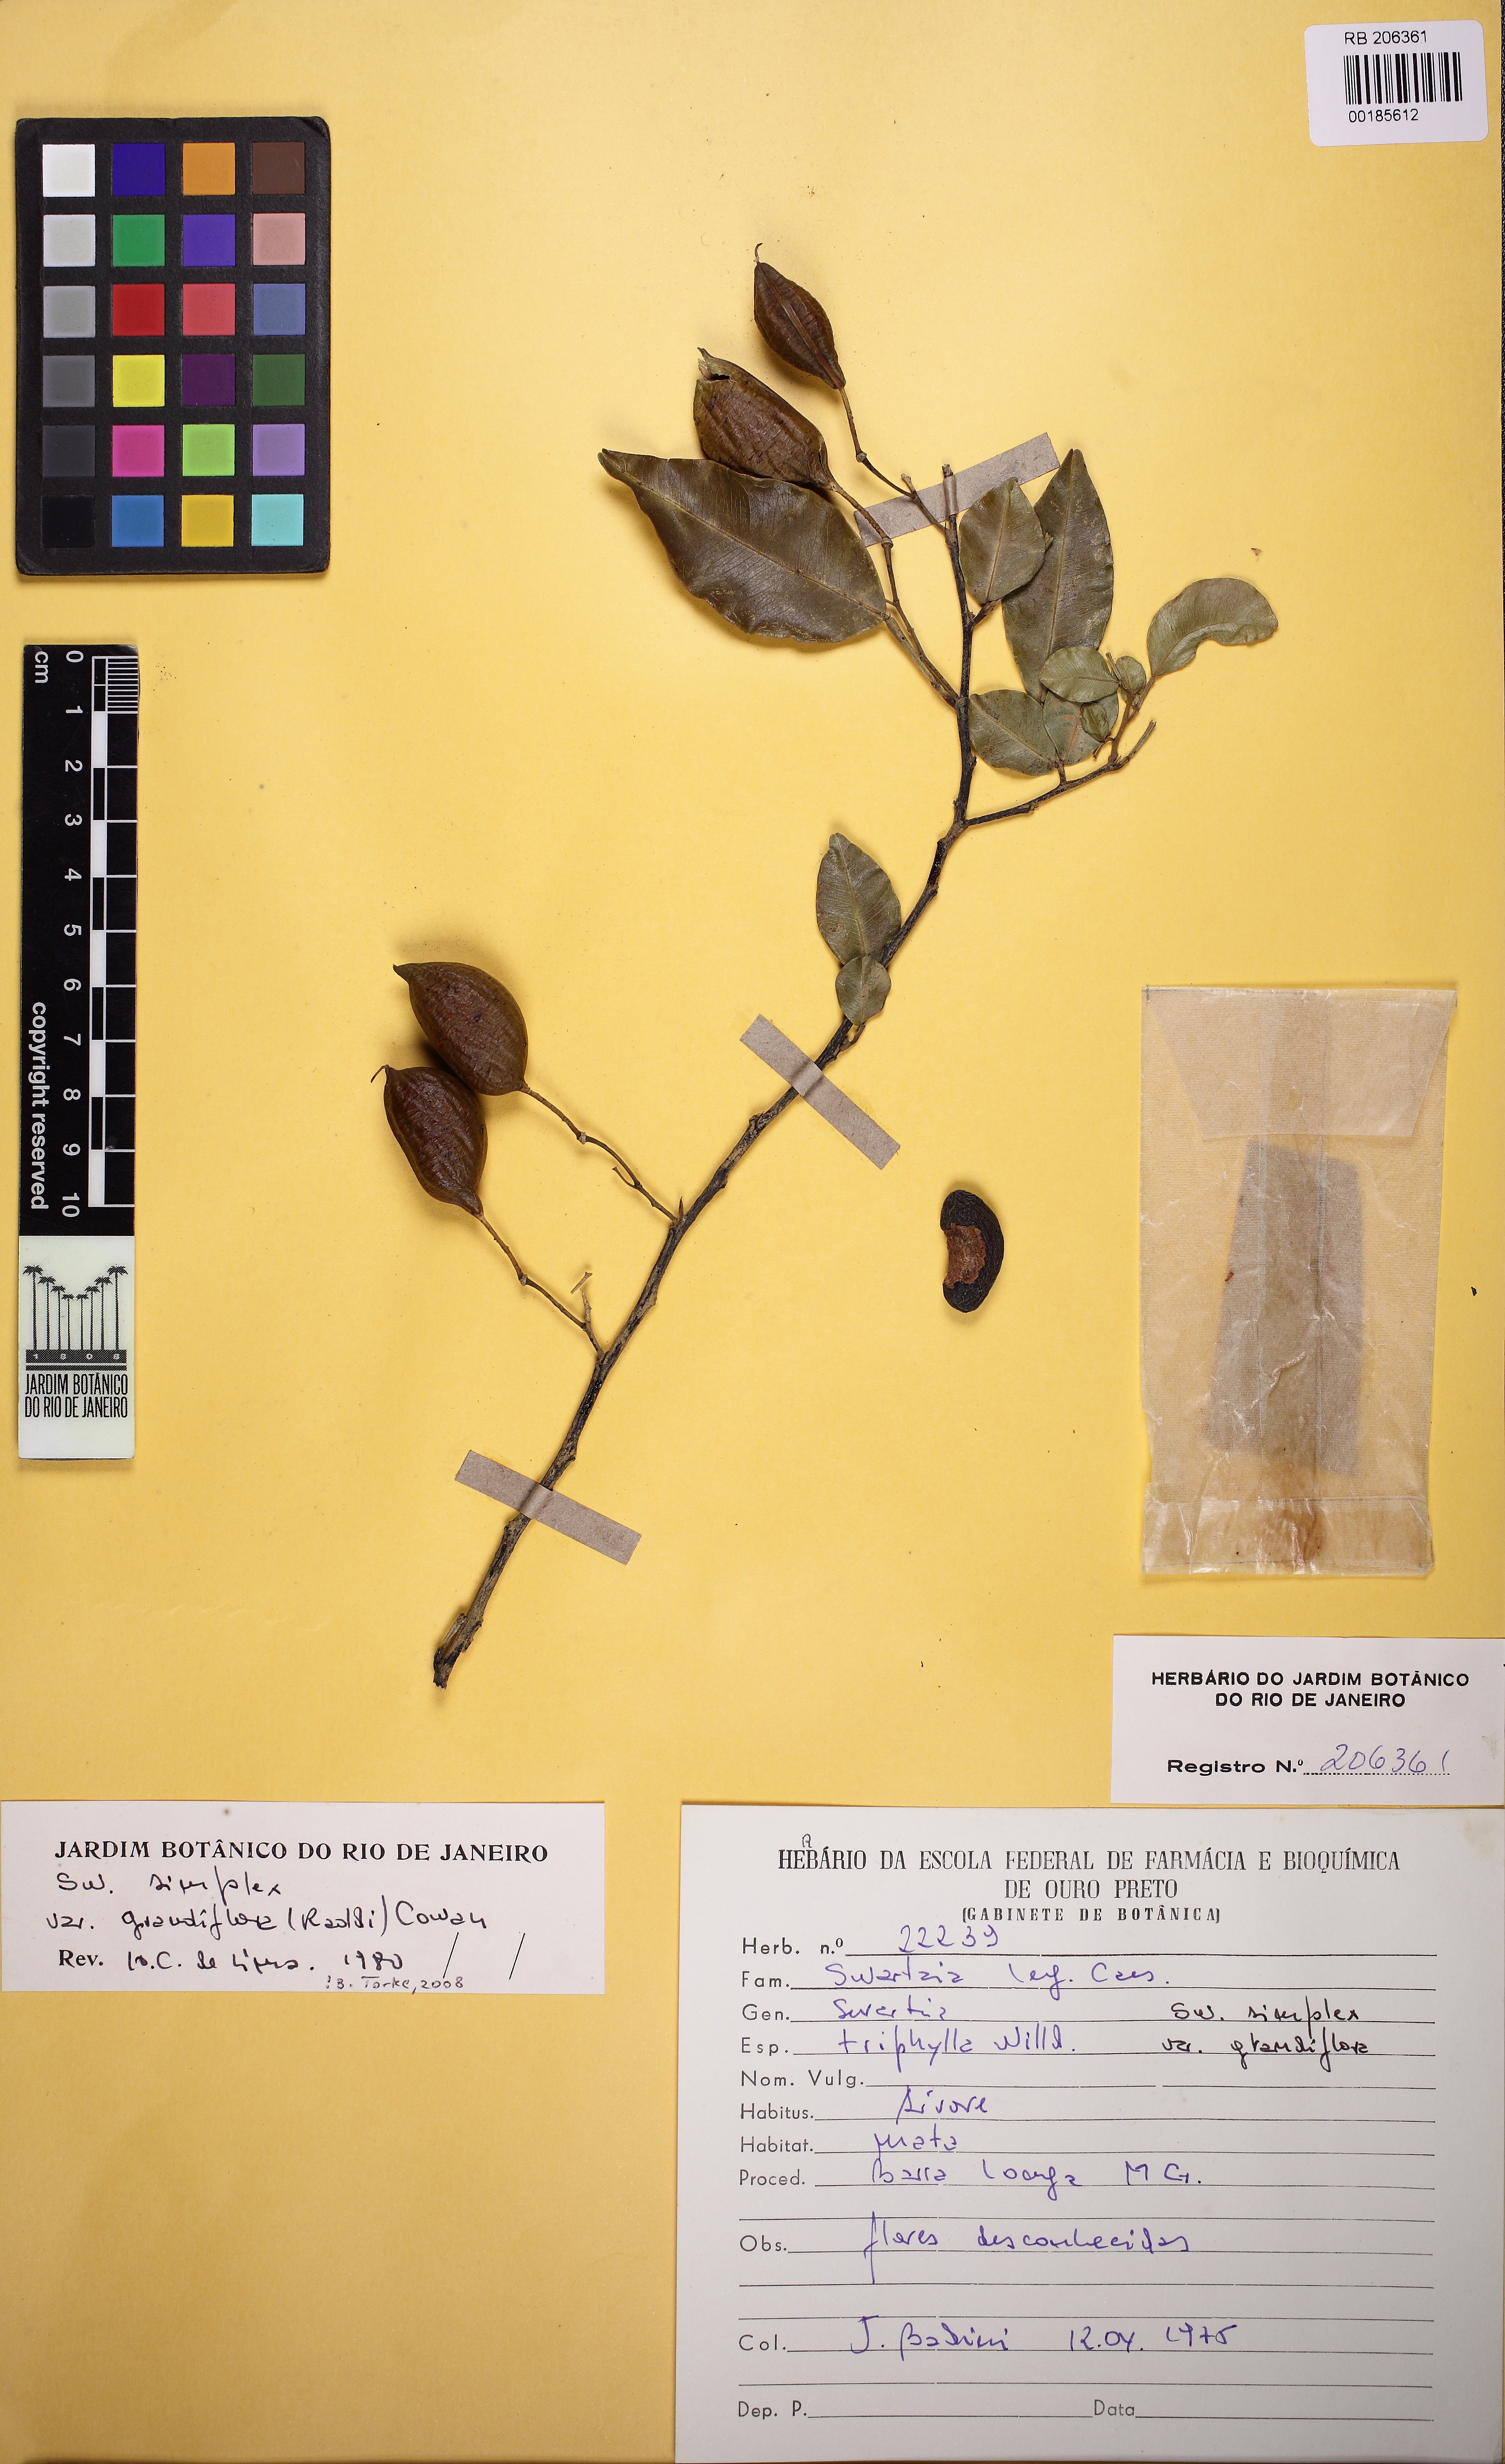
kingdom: Plantae
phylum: Tracheophyta
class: Magnoliopsida
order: Fabales
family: Fabaceae
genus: Swartzia
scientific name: Swartzia simplex
